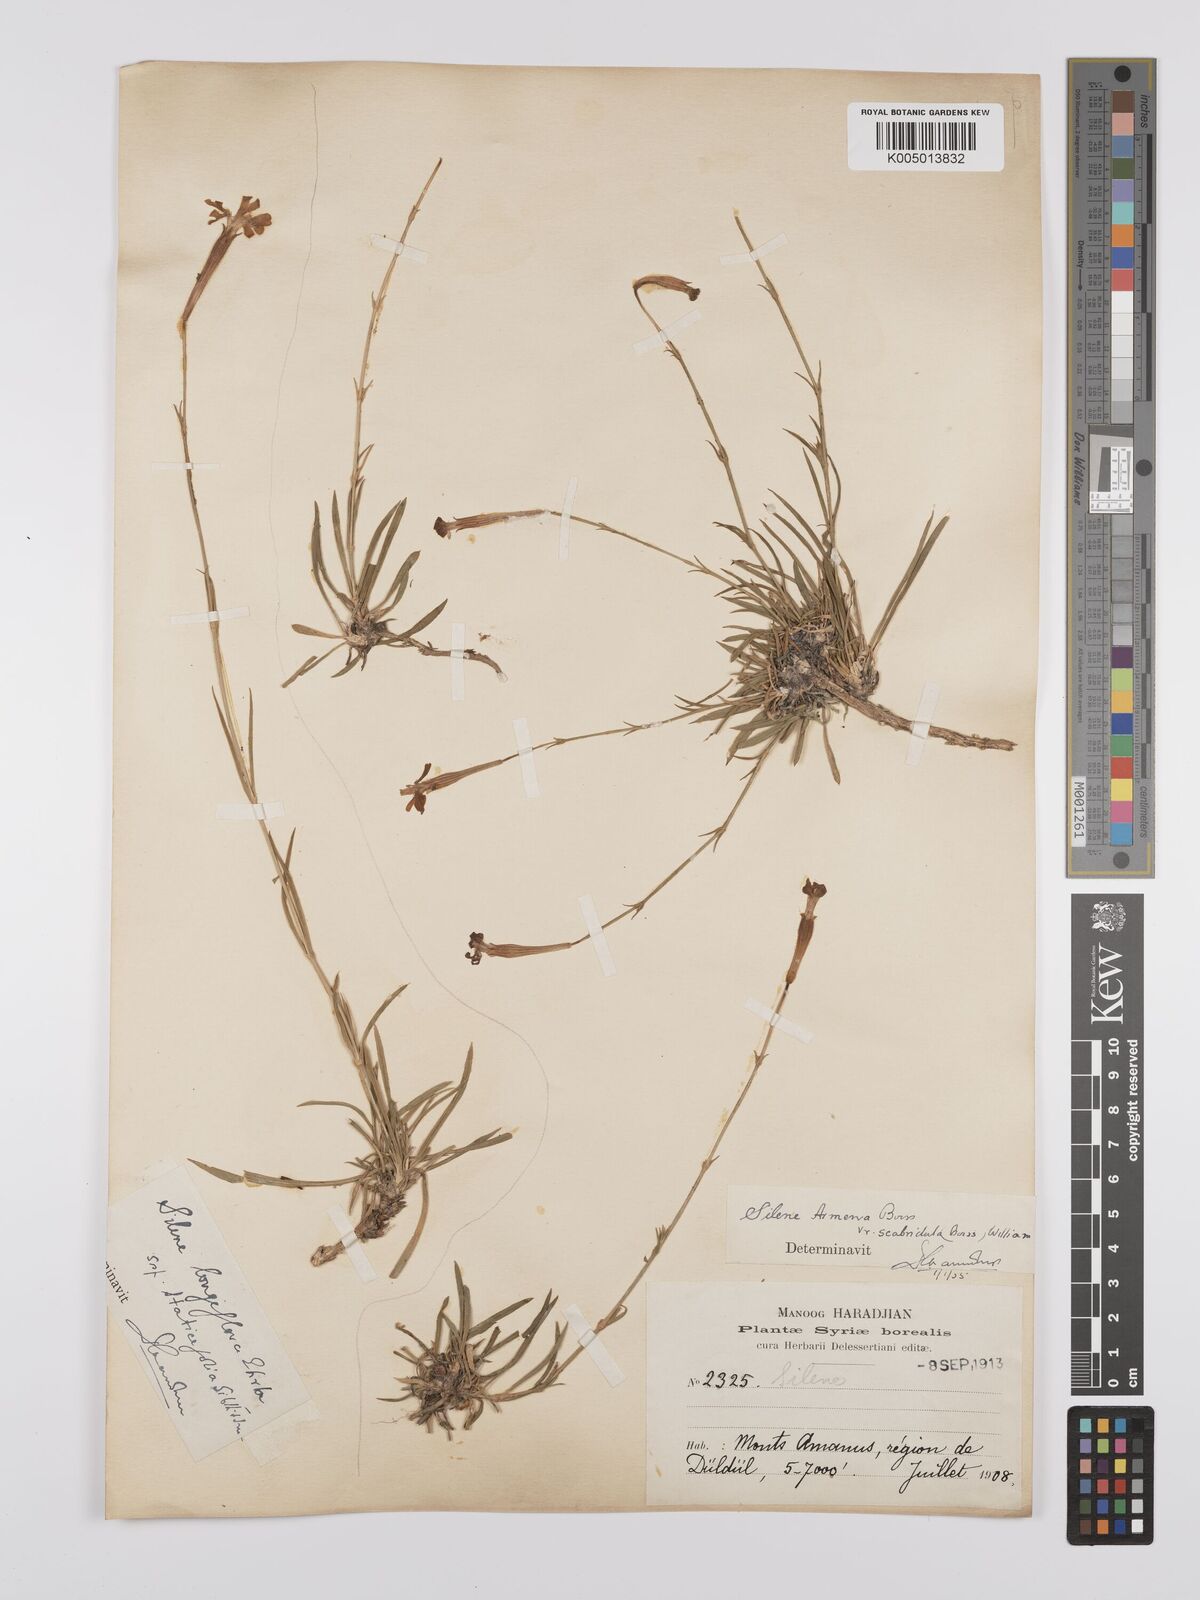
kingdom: Plantae
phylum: Tracheophyta
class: Magnoliopsida
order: Caryophyllales
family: Caryophyllaceae
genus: Silene
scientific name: Silene armena
